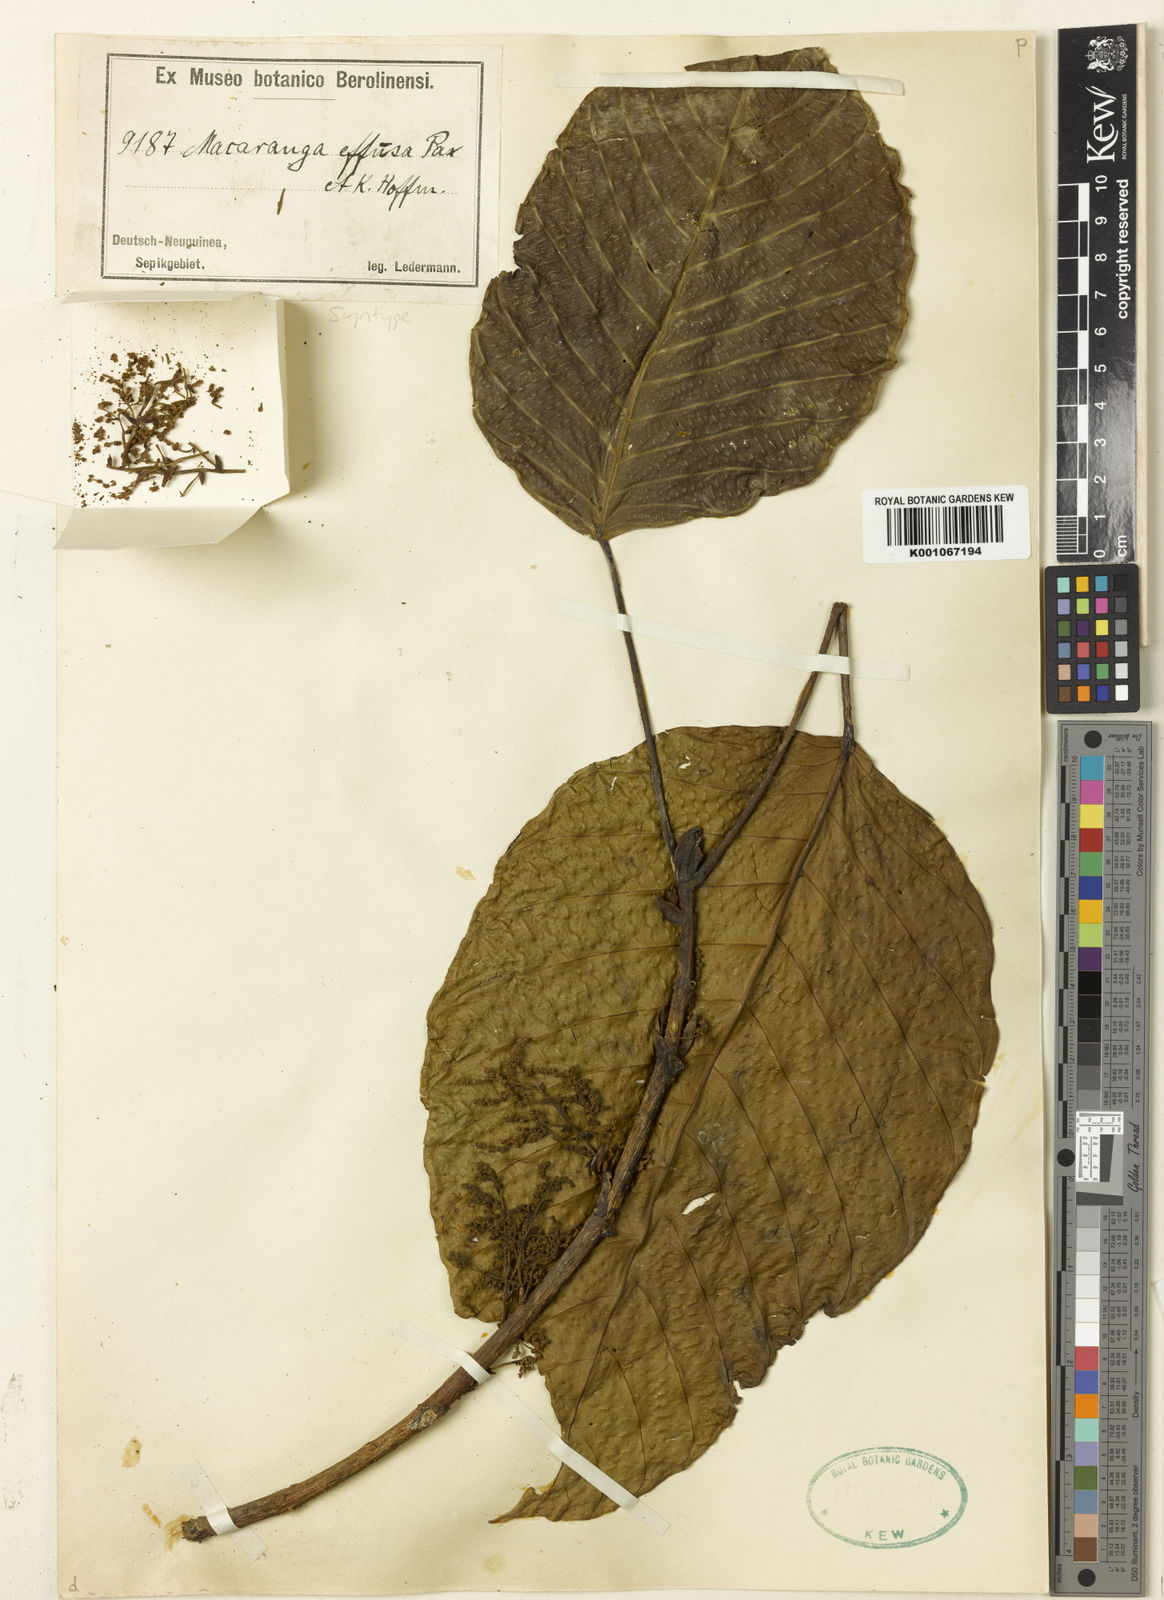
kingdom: Plantae
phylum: Tracheophyta
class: Magnoliopsida
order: Malpighiales
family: Euphorbiaceae
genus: Macaranga
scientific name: Macaranga inermis
